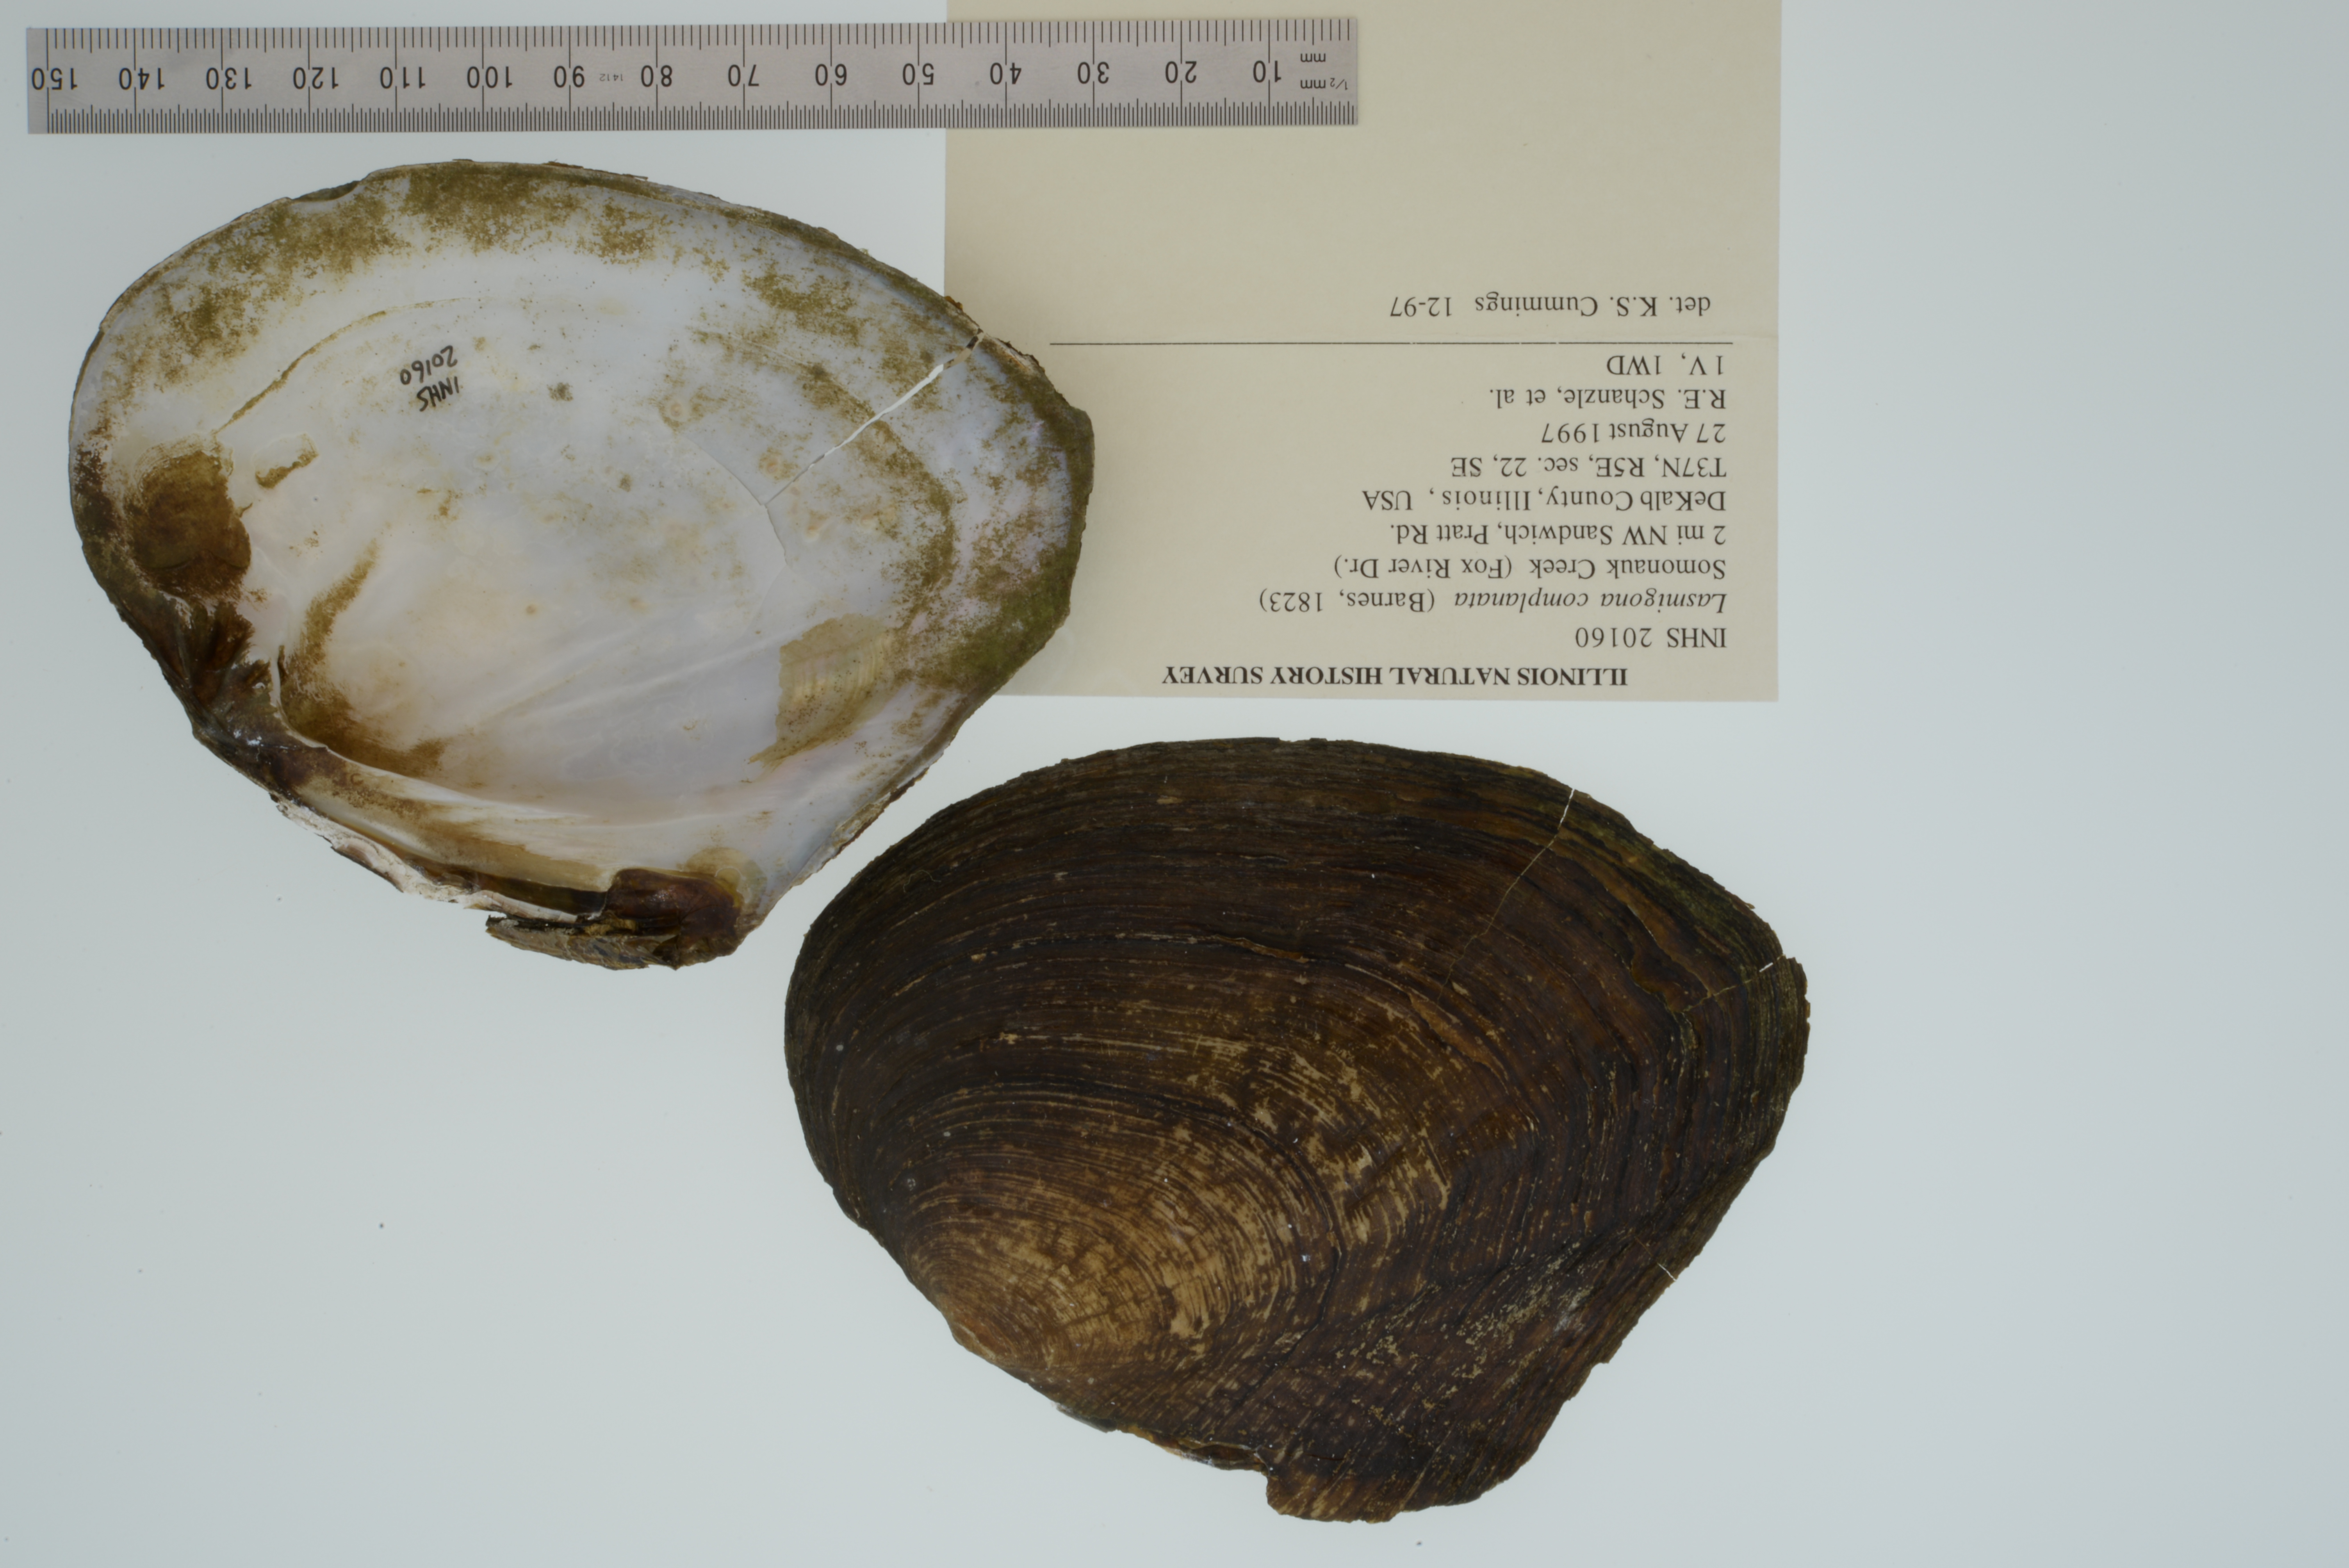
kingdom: Animalia
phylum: Mollusca
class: Bivalvia
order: Unionida
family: Unionidae
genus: Lasmigona
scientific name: Lasmigona complanata
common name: White heelsplitter
